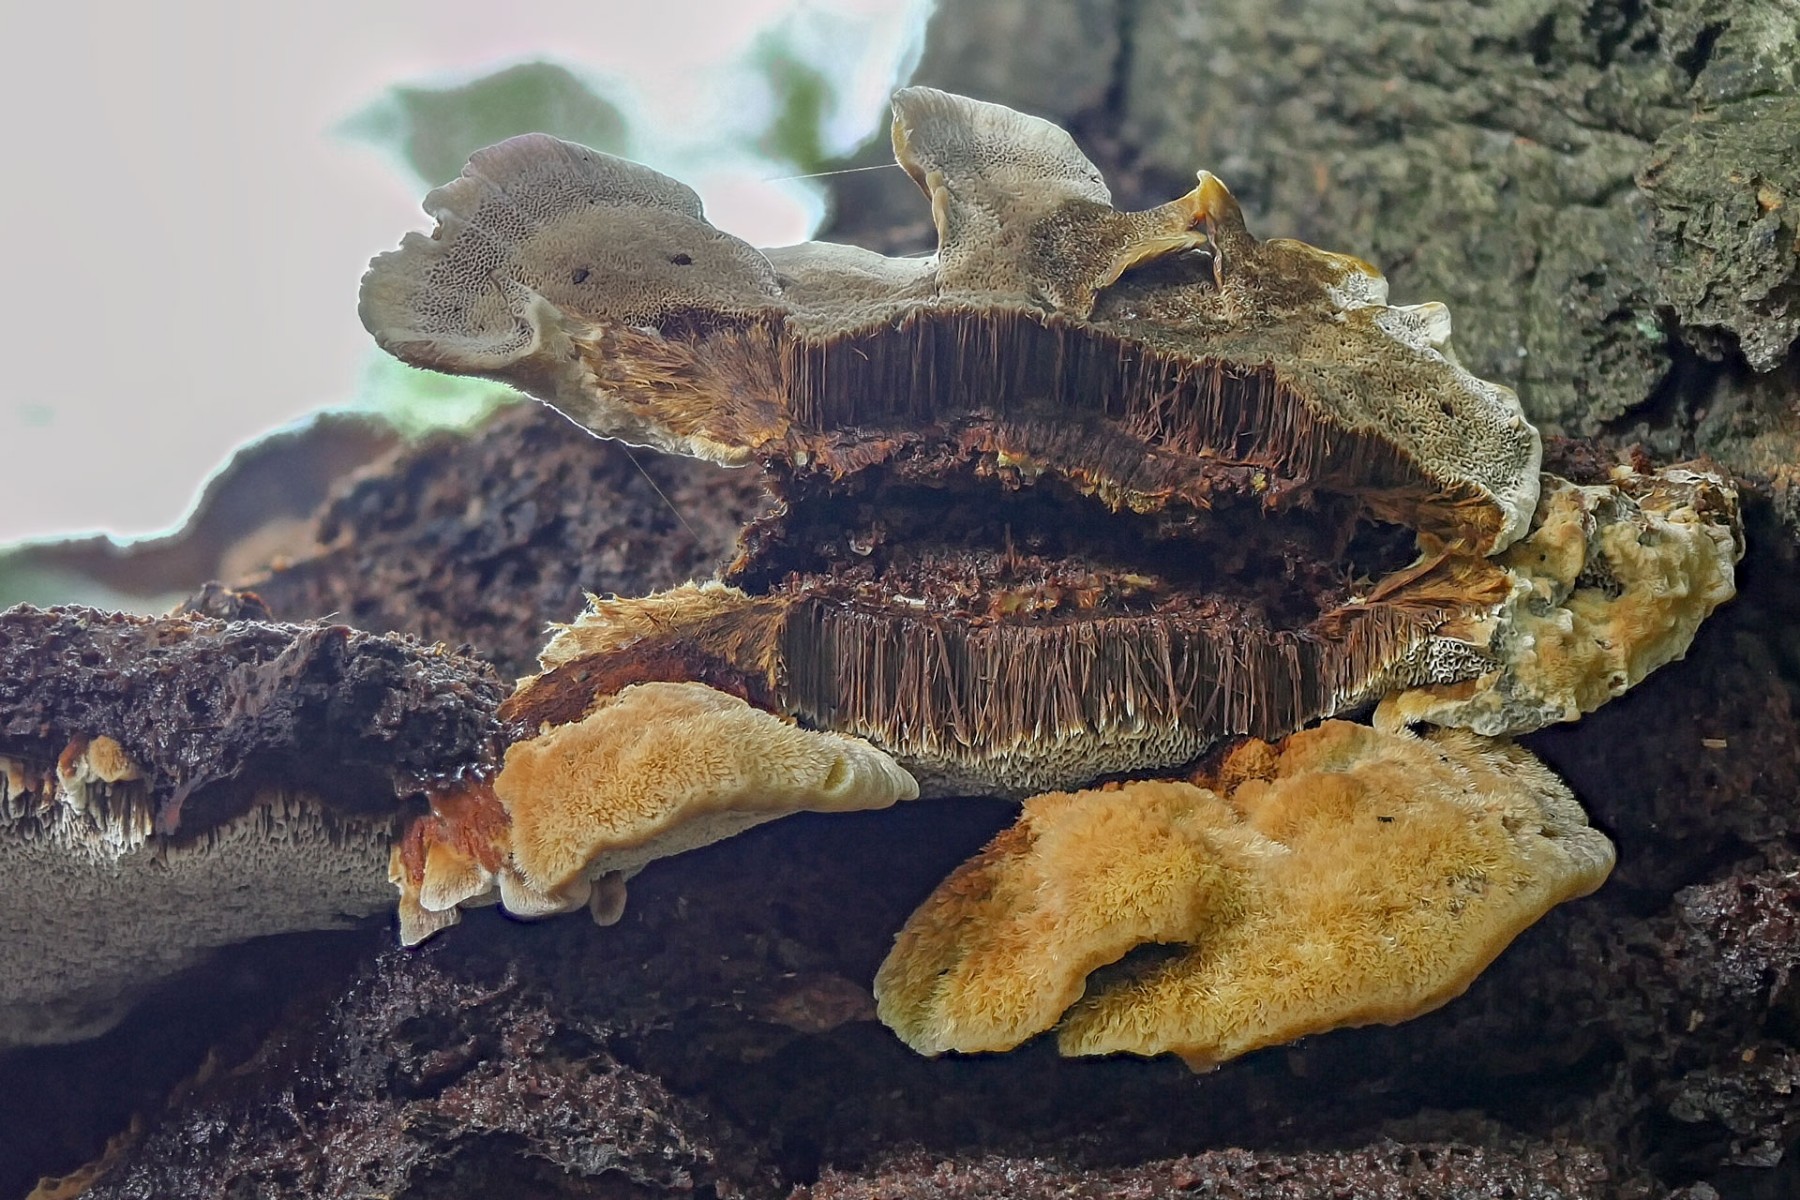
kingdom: Fungi
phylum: Basidiomycota
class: Agaricomycetes
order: Hymenochaetales
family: Hymenochaetaceae
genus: Inonotus
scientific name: Inonotus cuticularis
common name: kroghåret spejlporesvamp
